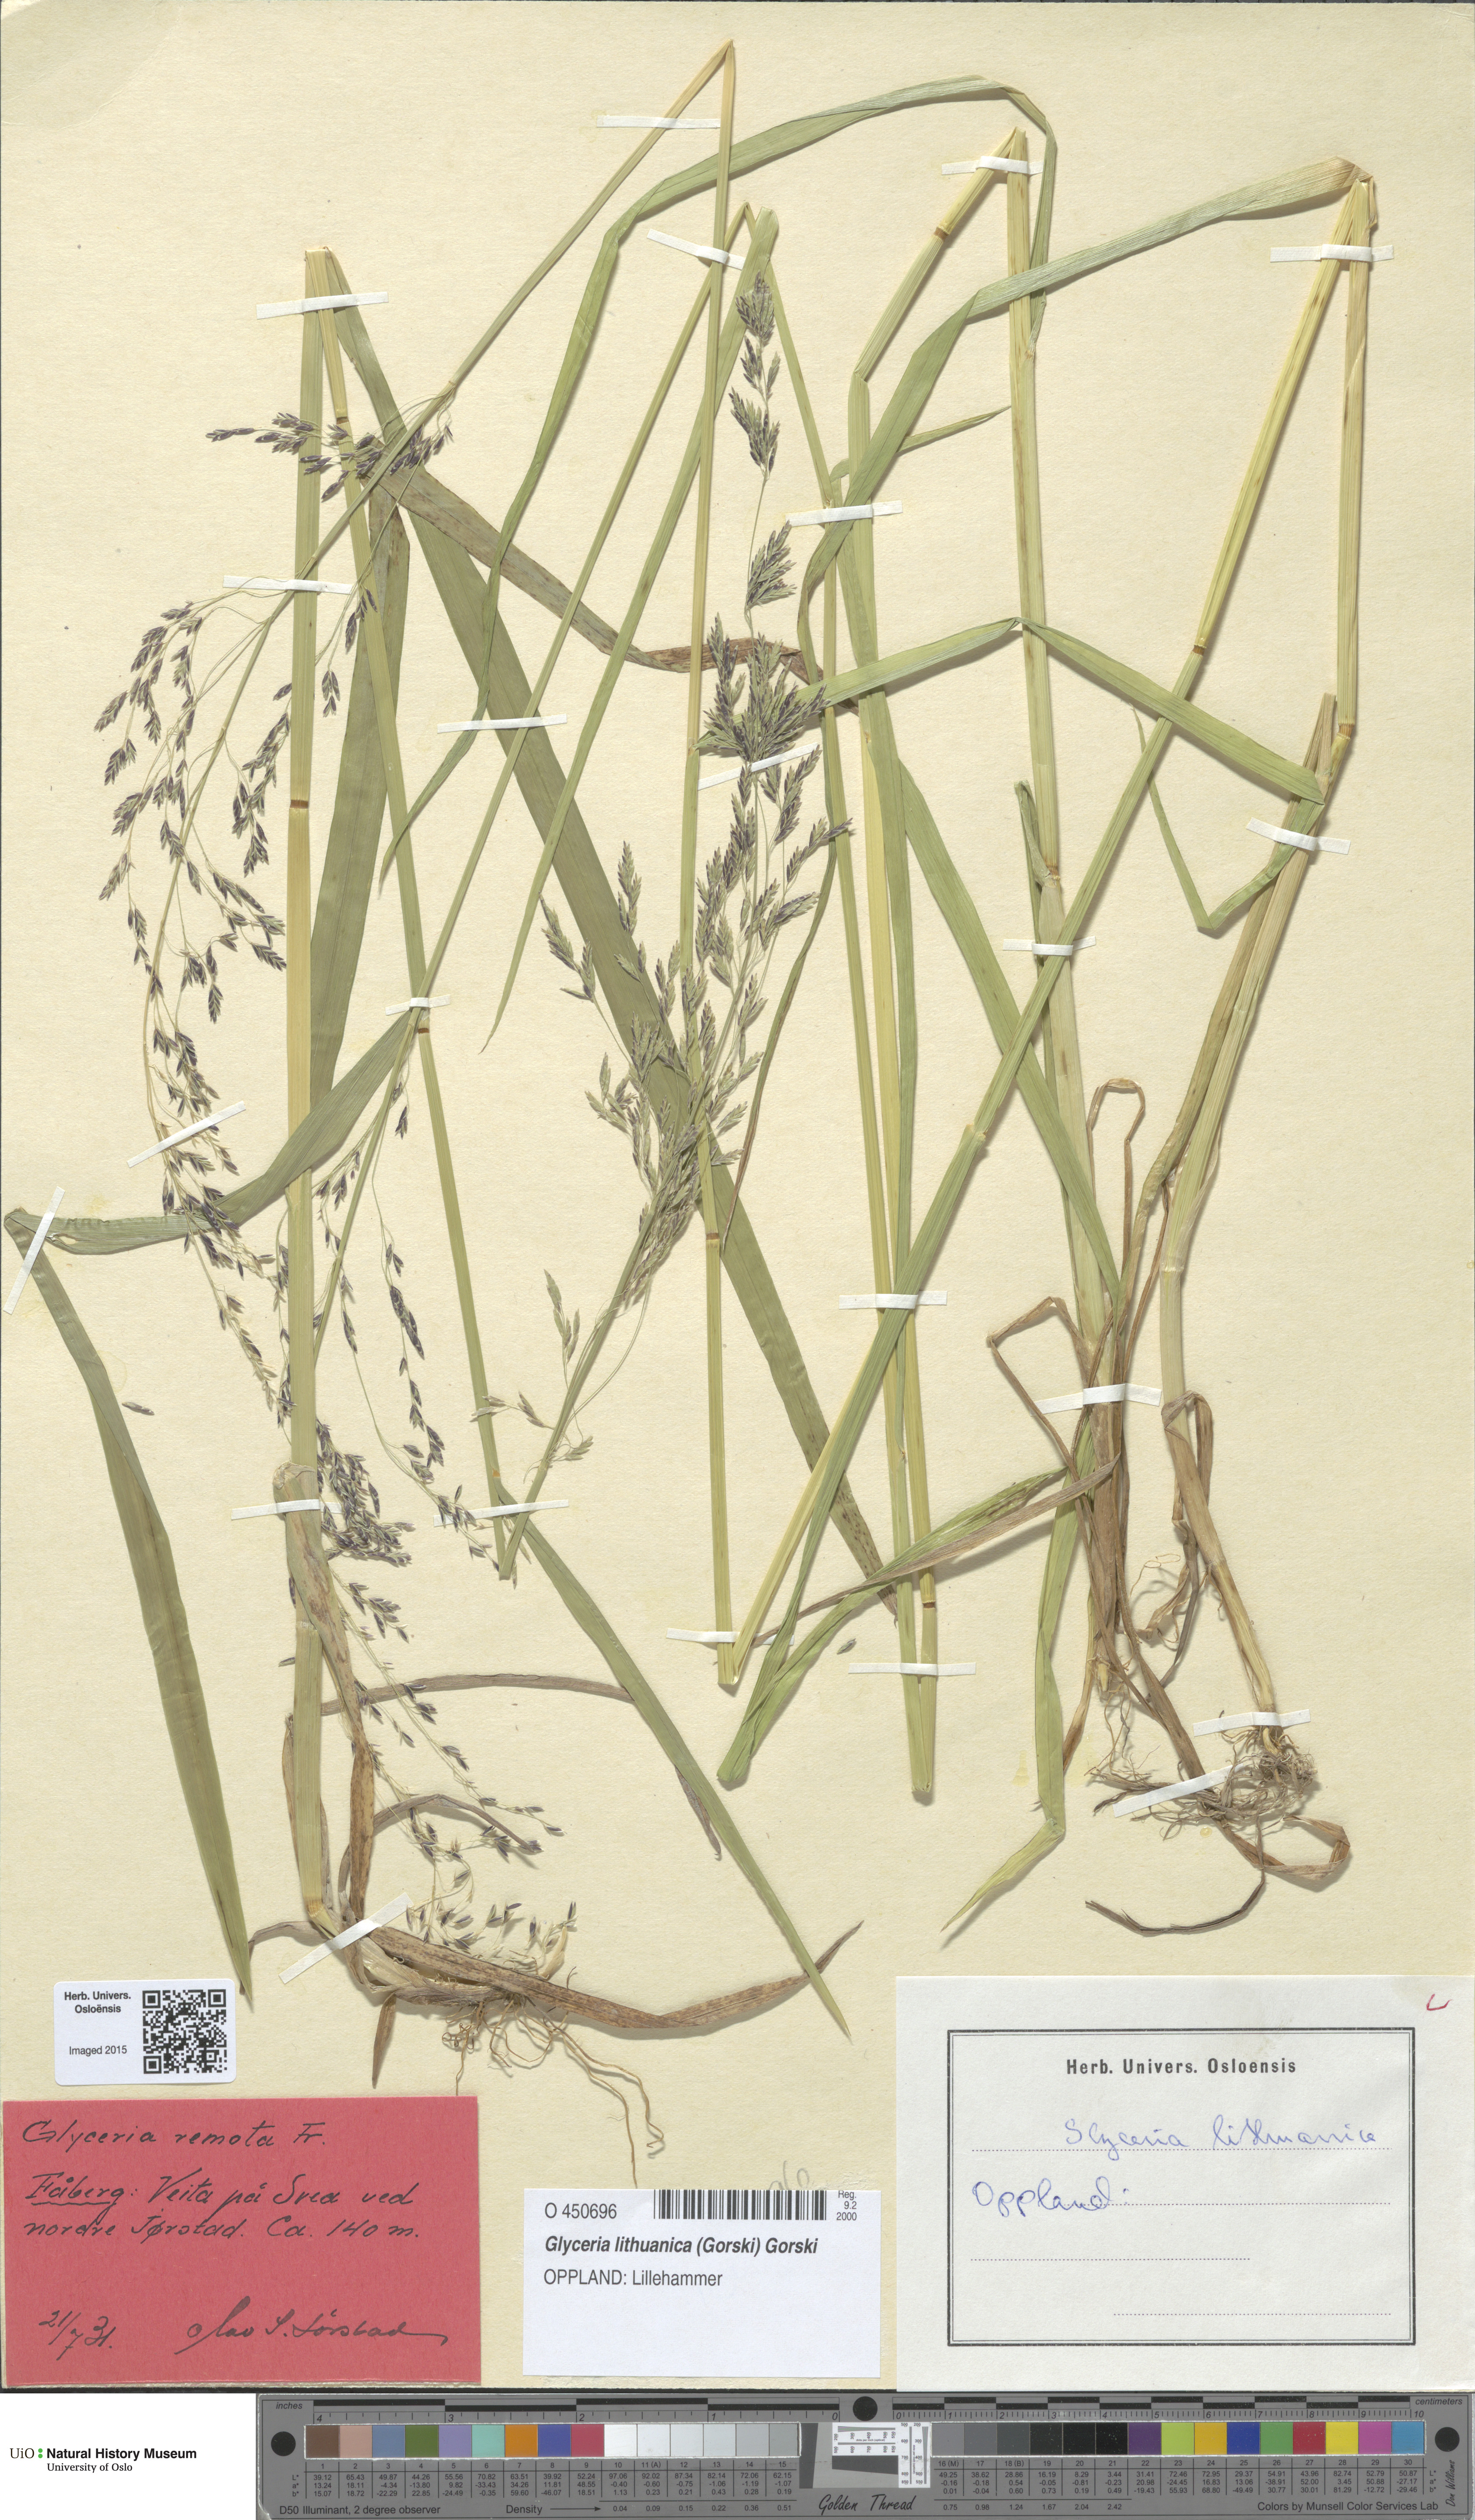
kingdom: Plantae
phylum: Tracheophyta
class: Liliopsida
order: Poales
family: Poaceae
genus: Glyceria
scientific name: Glyceria lithuanica
